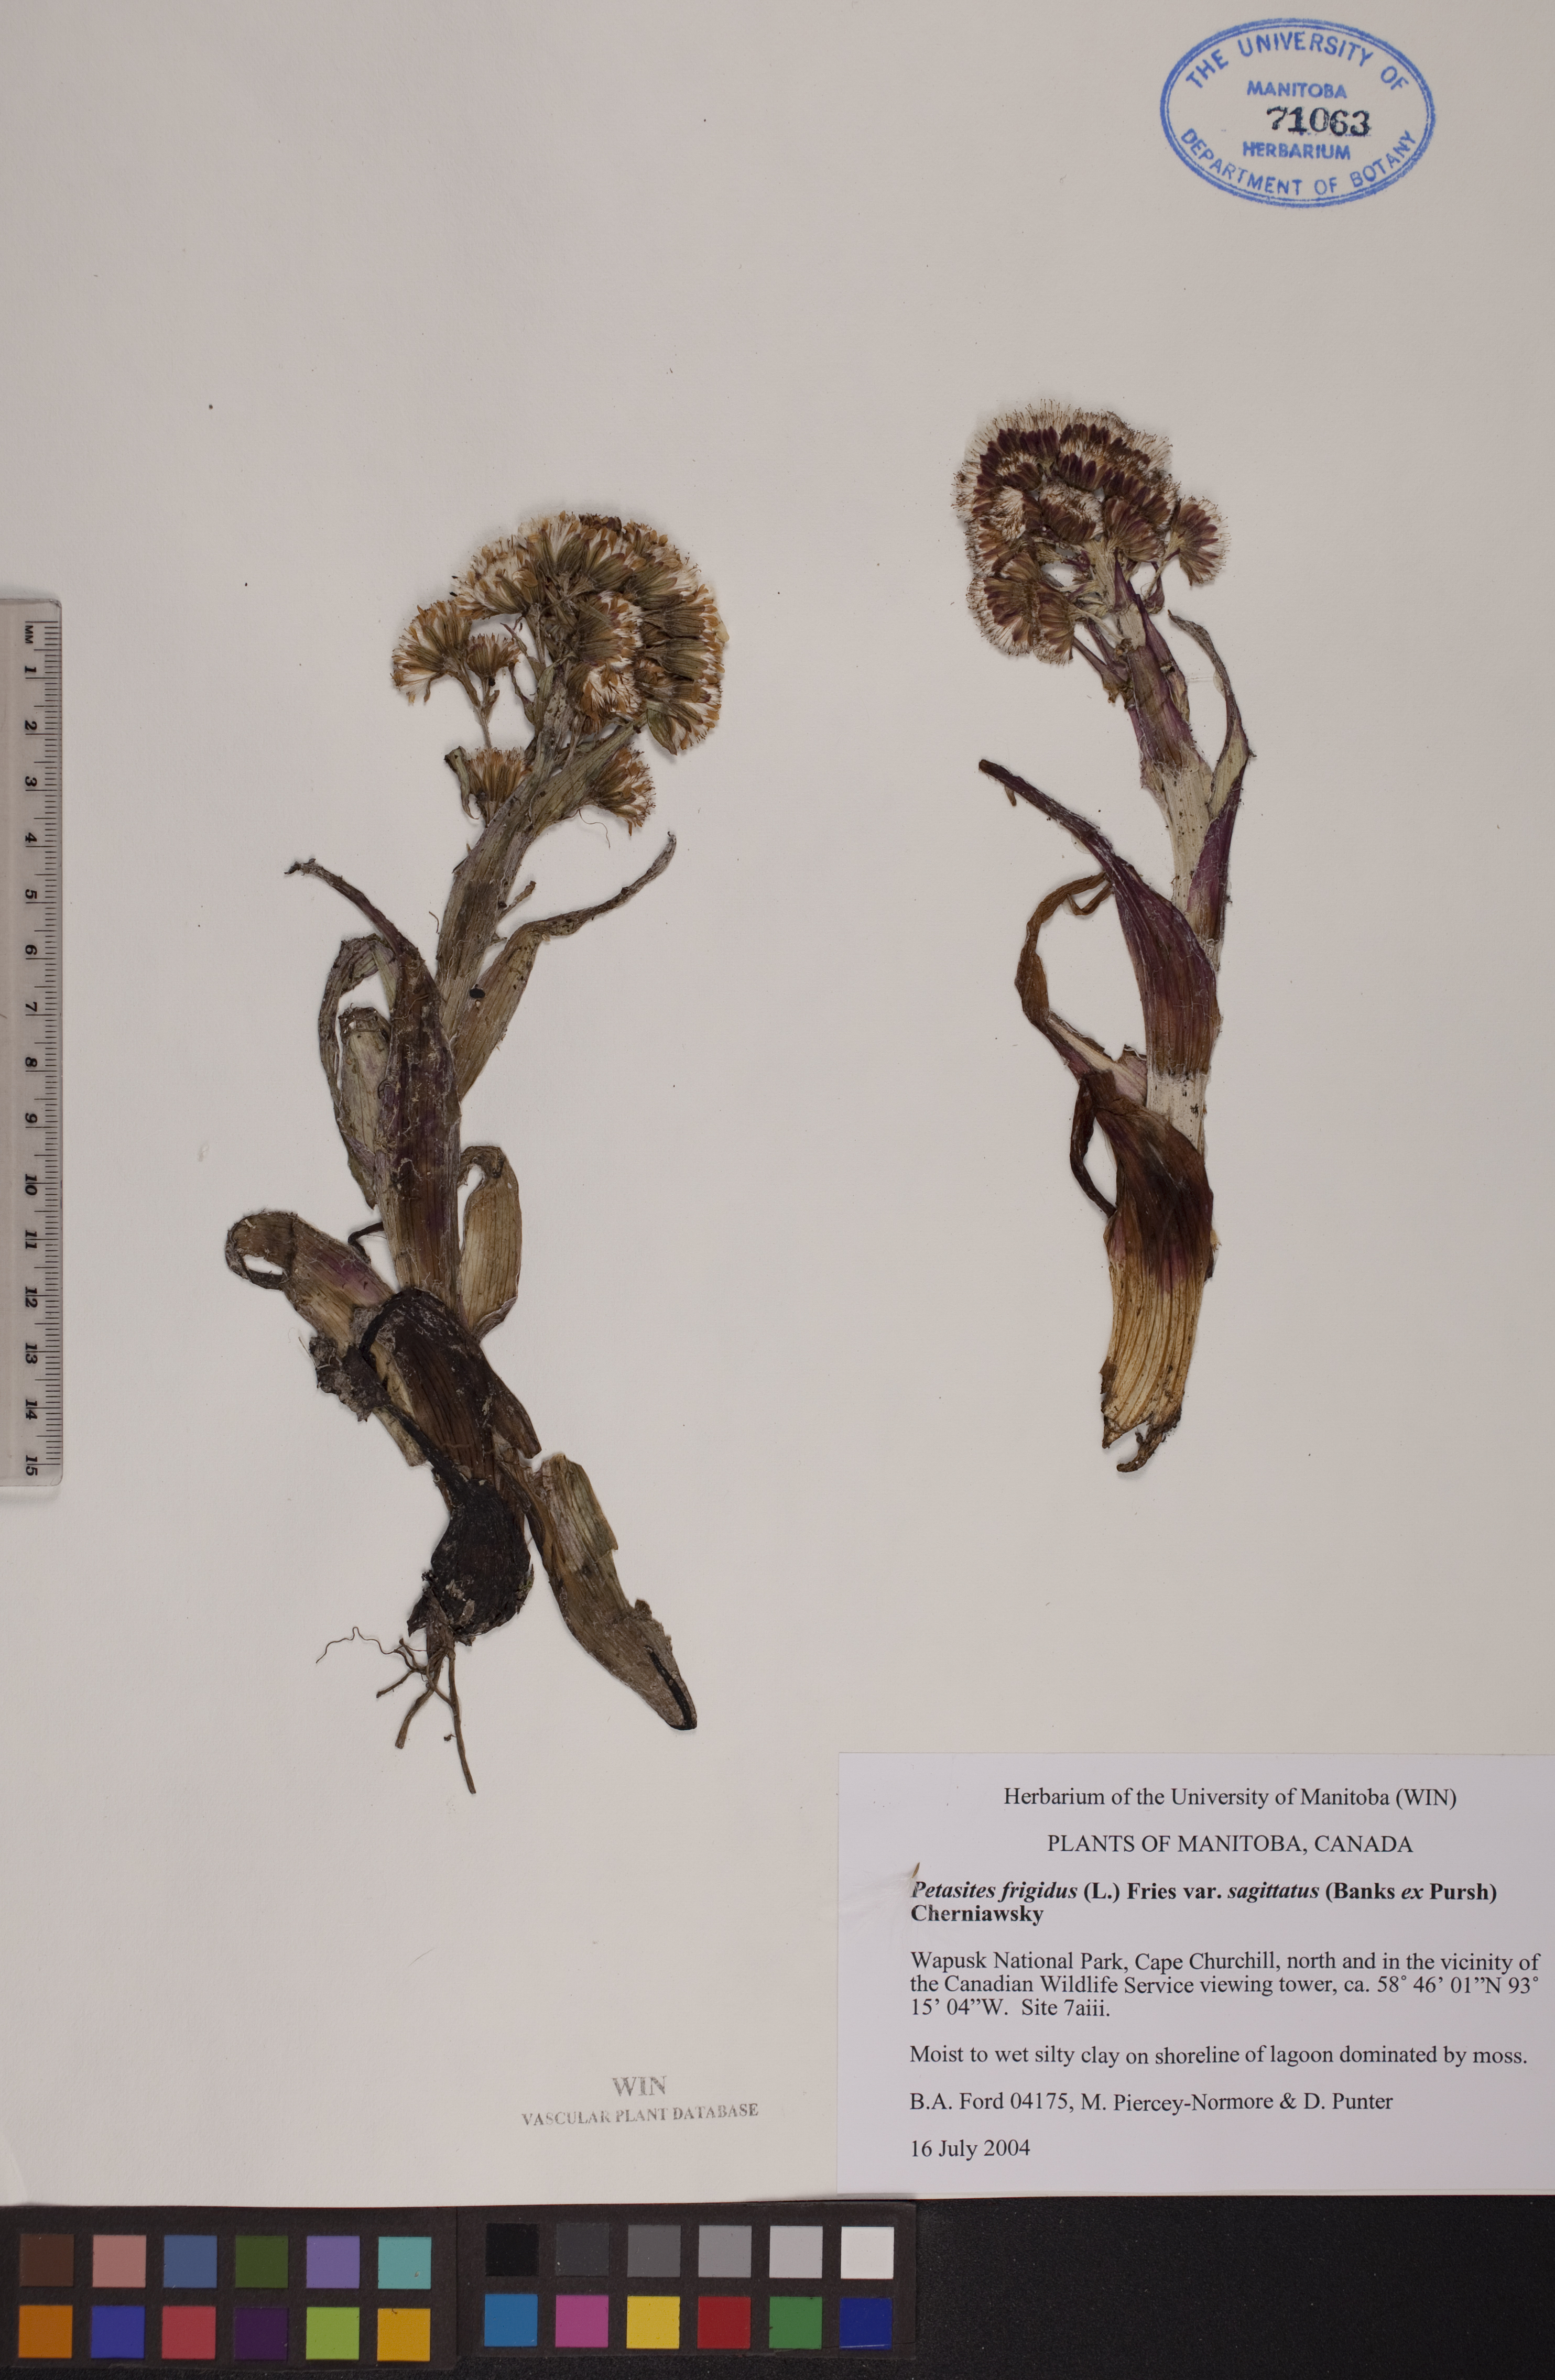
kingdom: Plantae
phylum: Tracheophyta
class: Magnoliopsida
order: Asterales
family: Asteraceae
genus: Petasites
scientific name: Petasites frigidus
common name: Arctic butterbur
